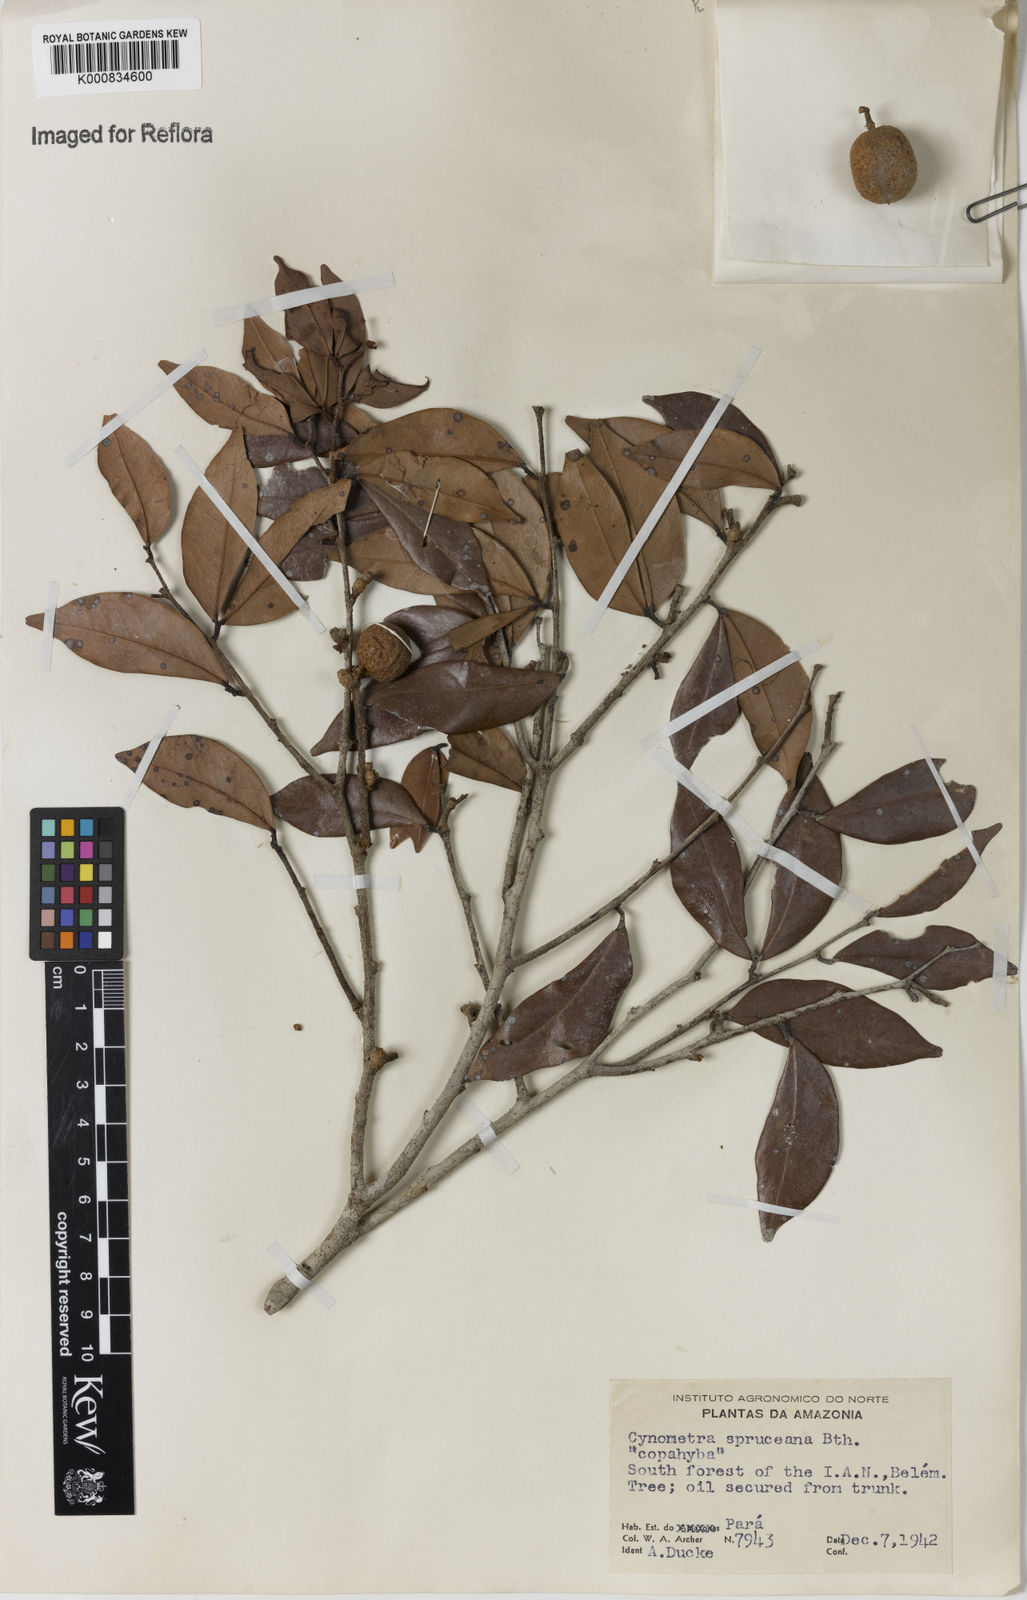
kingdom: Plantae
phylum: Tracheophyta
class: Magnoliopsida
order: Fabales
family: Fabaceae
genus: Cynometra
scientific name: Cynometra phaselocarpa
